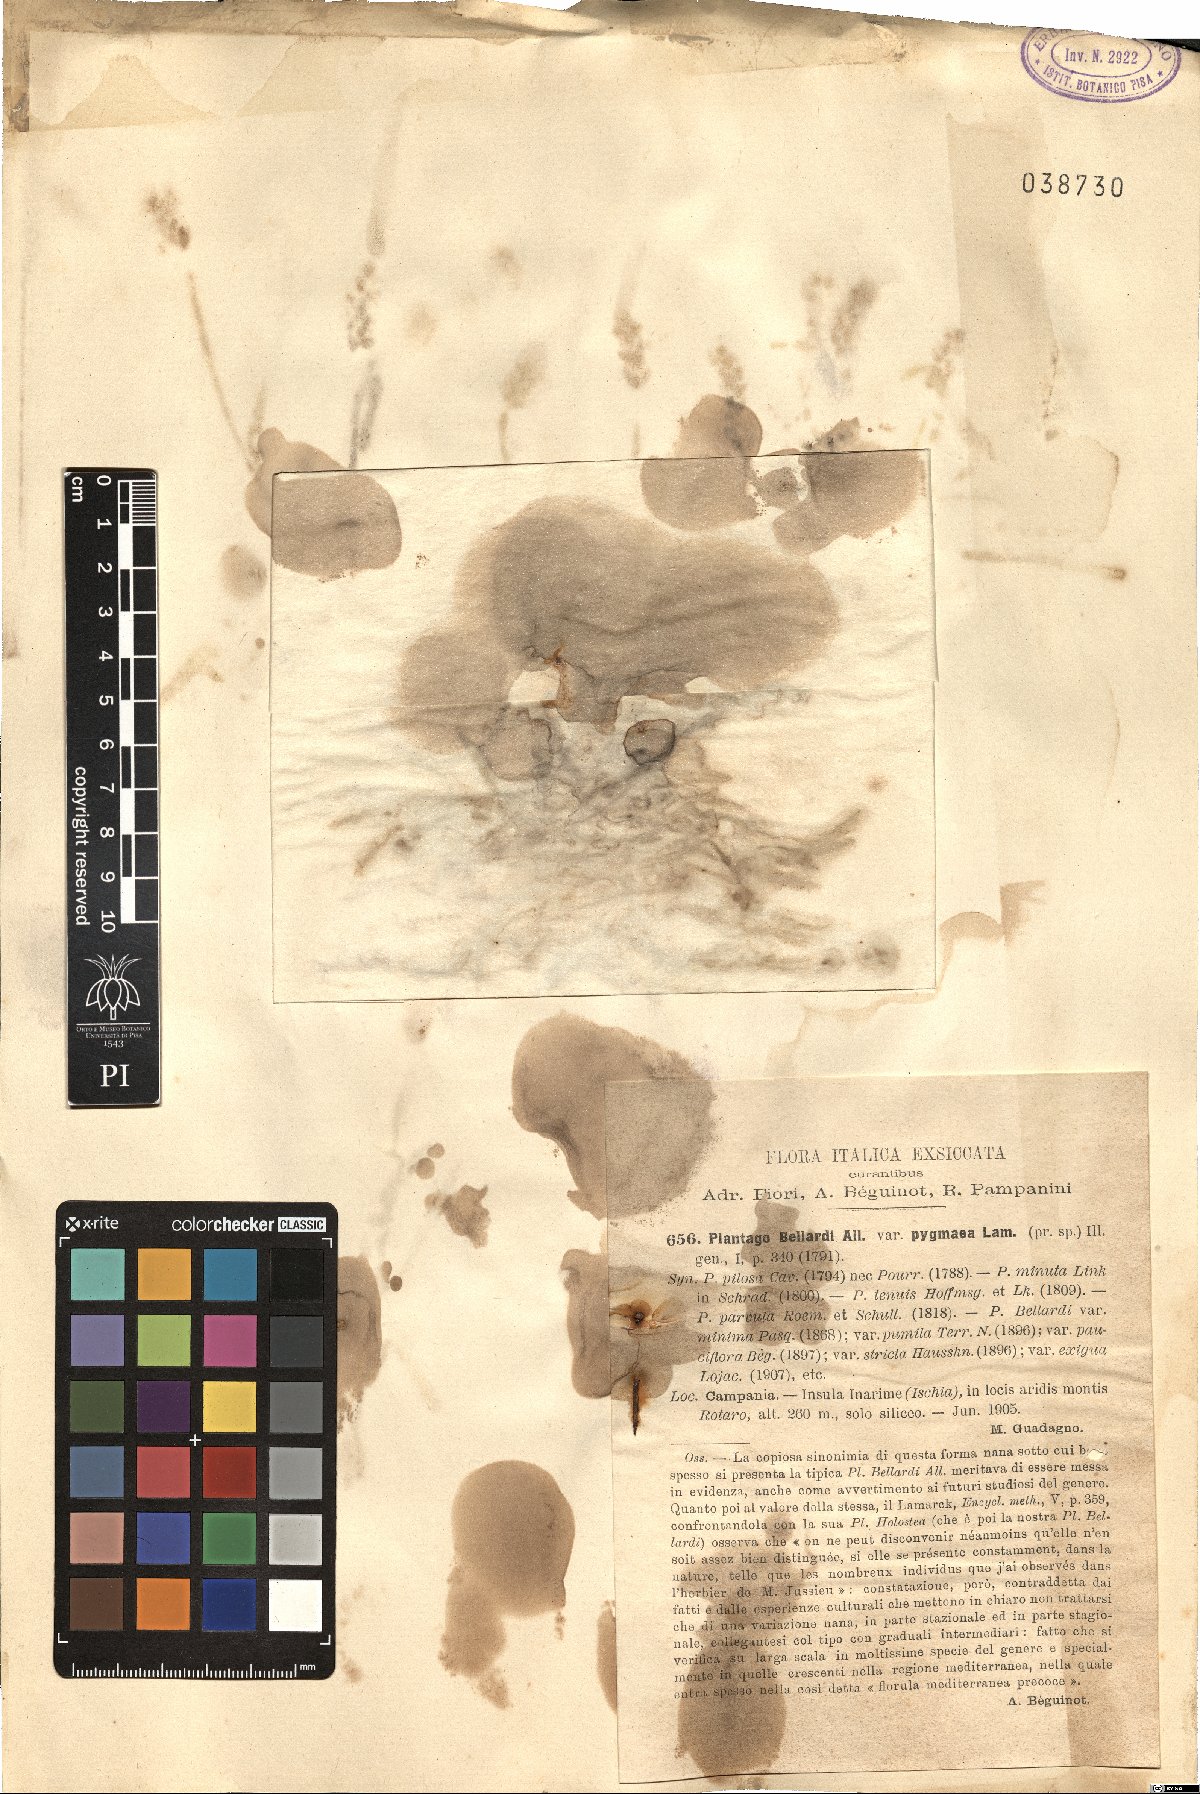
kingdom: Plantae
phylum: Tracheophyta
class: Magnoliopsida
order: Lamiales
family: Plantaginaceae
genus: Plantago
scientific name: Plantago bellardii
